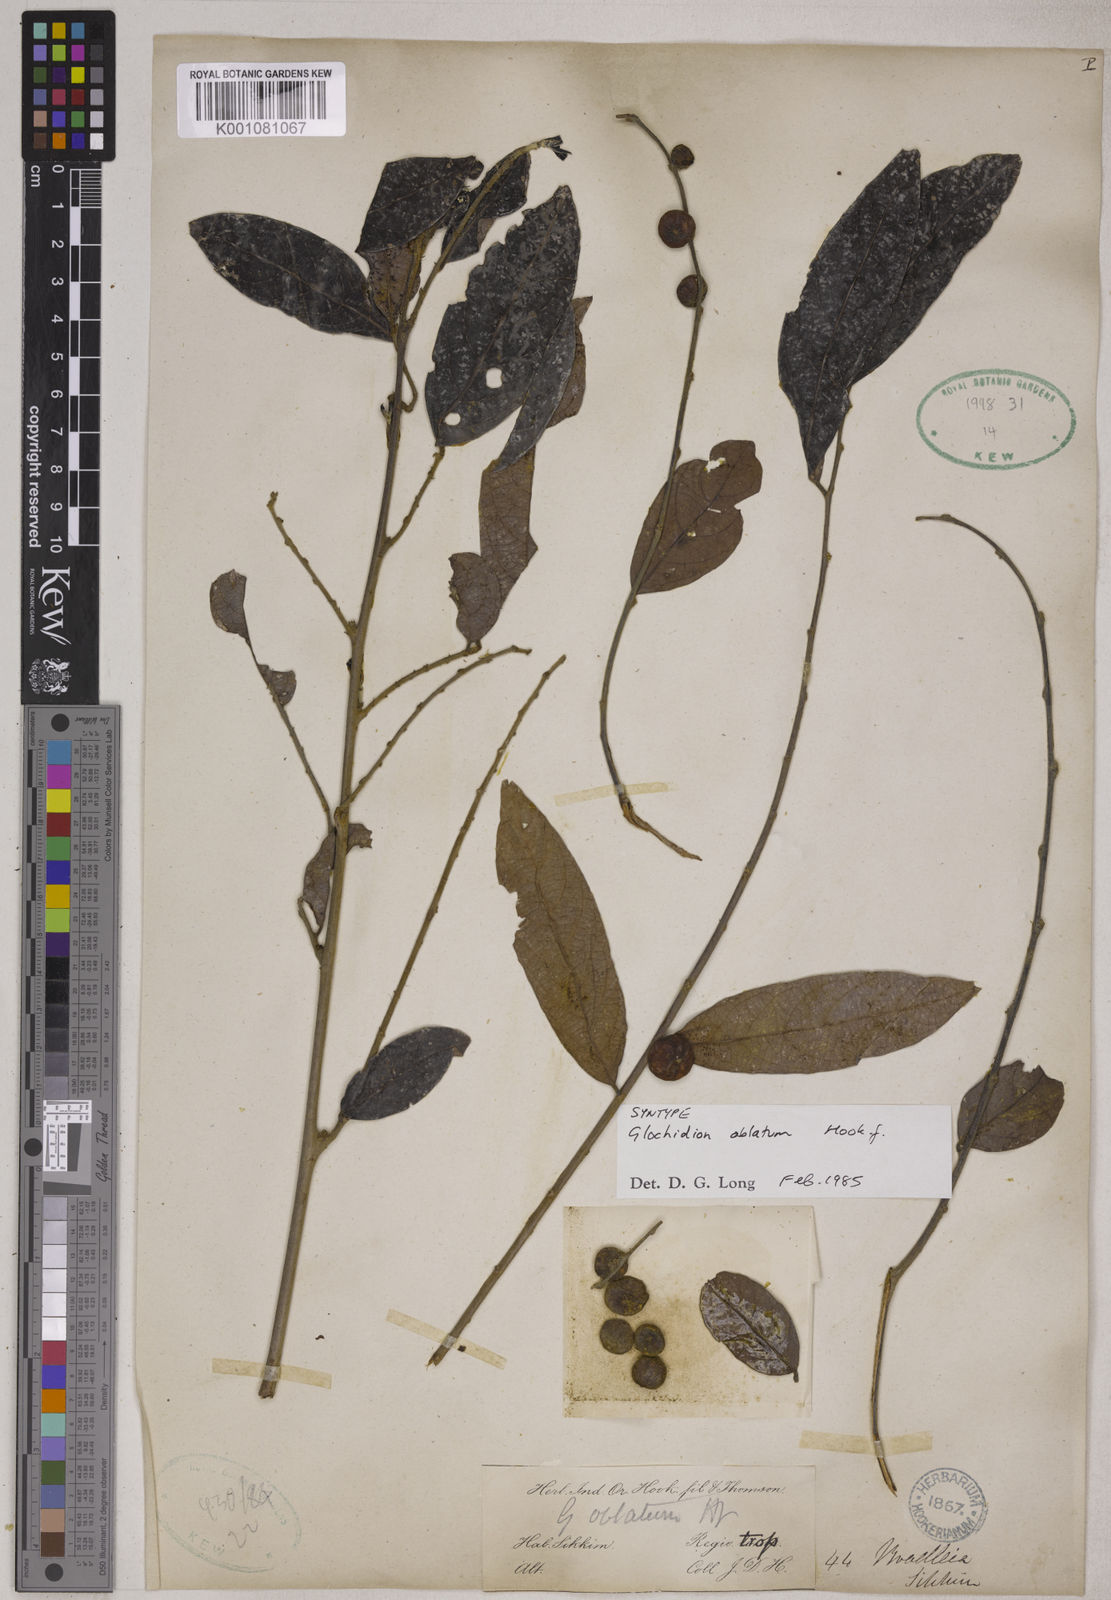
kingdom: Plantae
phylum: Tracheophyta
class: Magnoliopsida
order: Malpighiales
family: Phyllanthaceae
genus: Glochidion
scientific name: Glochidion oblatum
